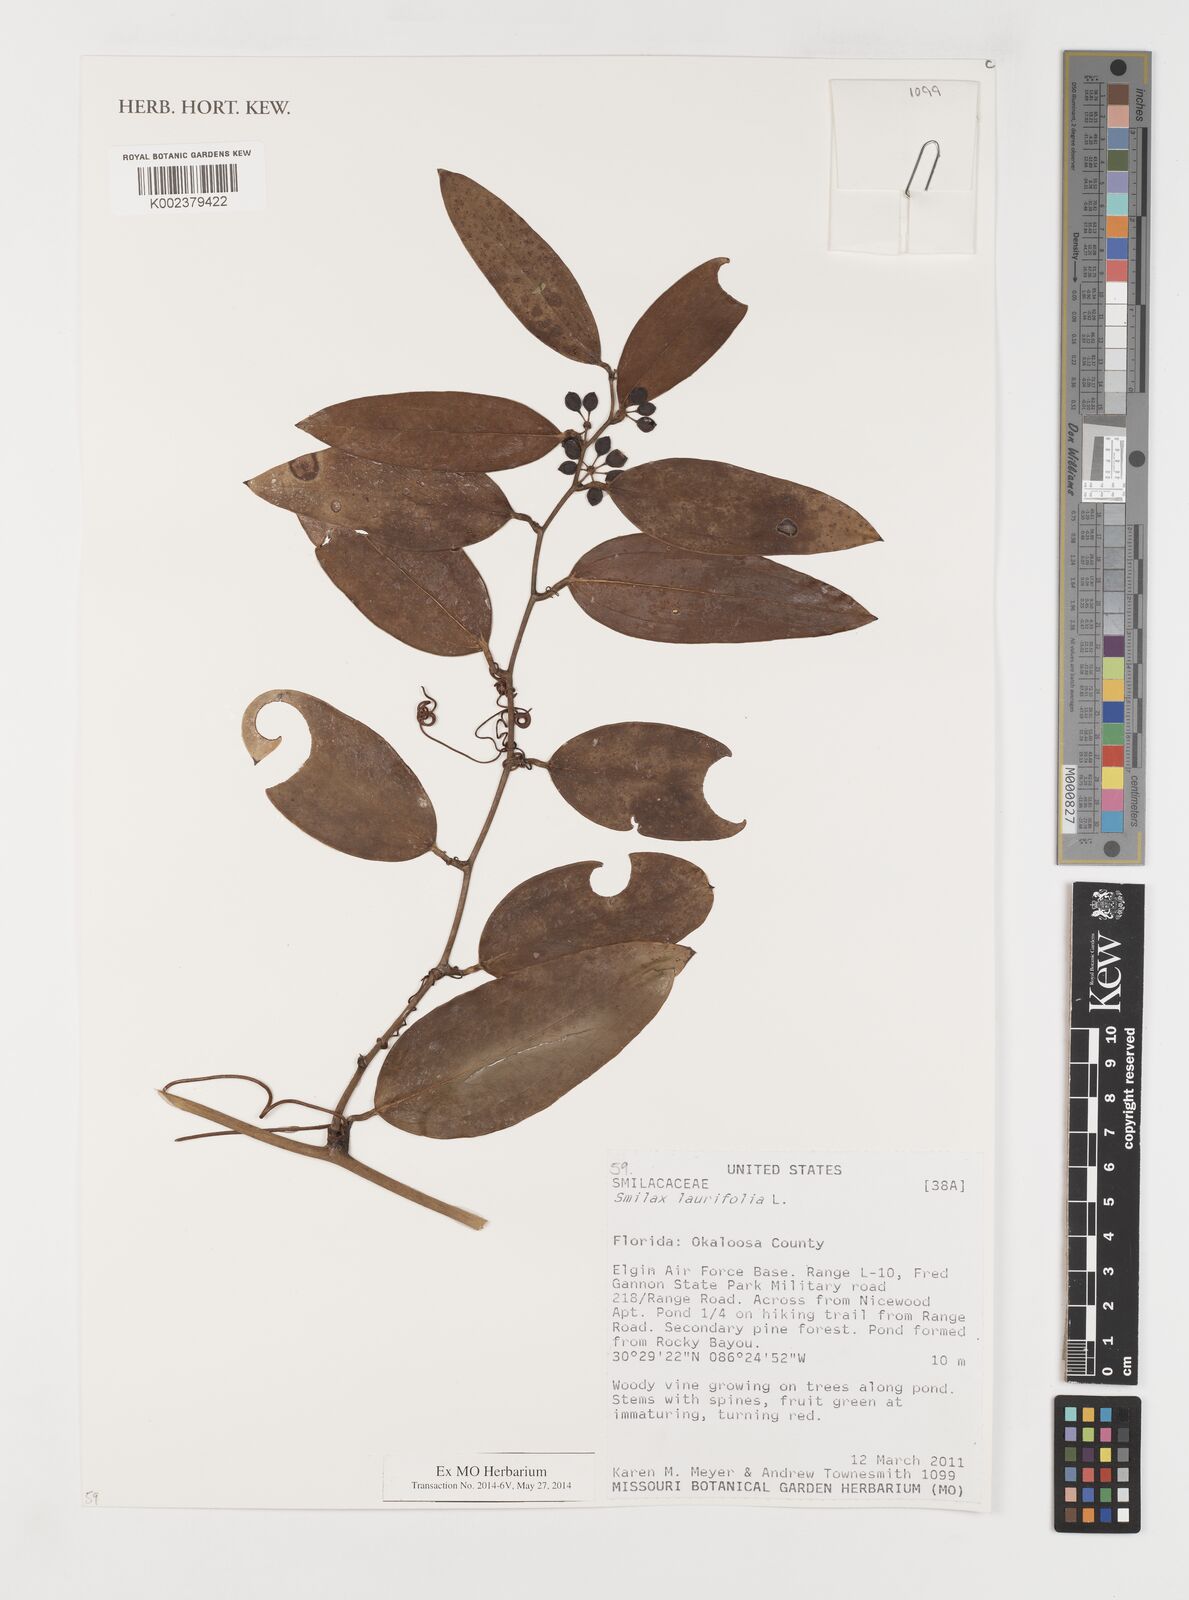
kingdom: Plantae
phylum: Tracheophyta
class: Liliopsida
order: Liliales
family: Smilacaceae
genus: Smilax
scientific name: Smilax laurifolia
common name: Bamboovine
